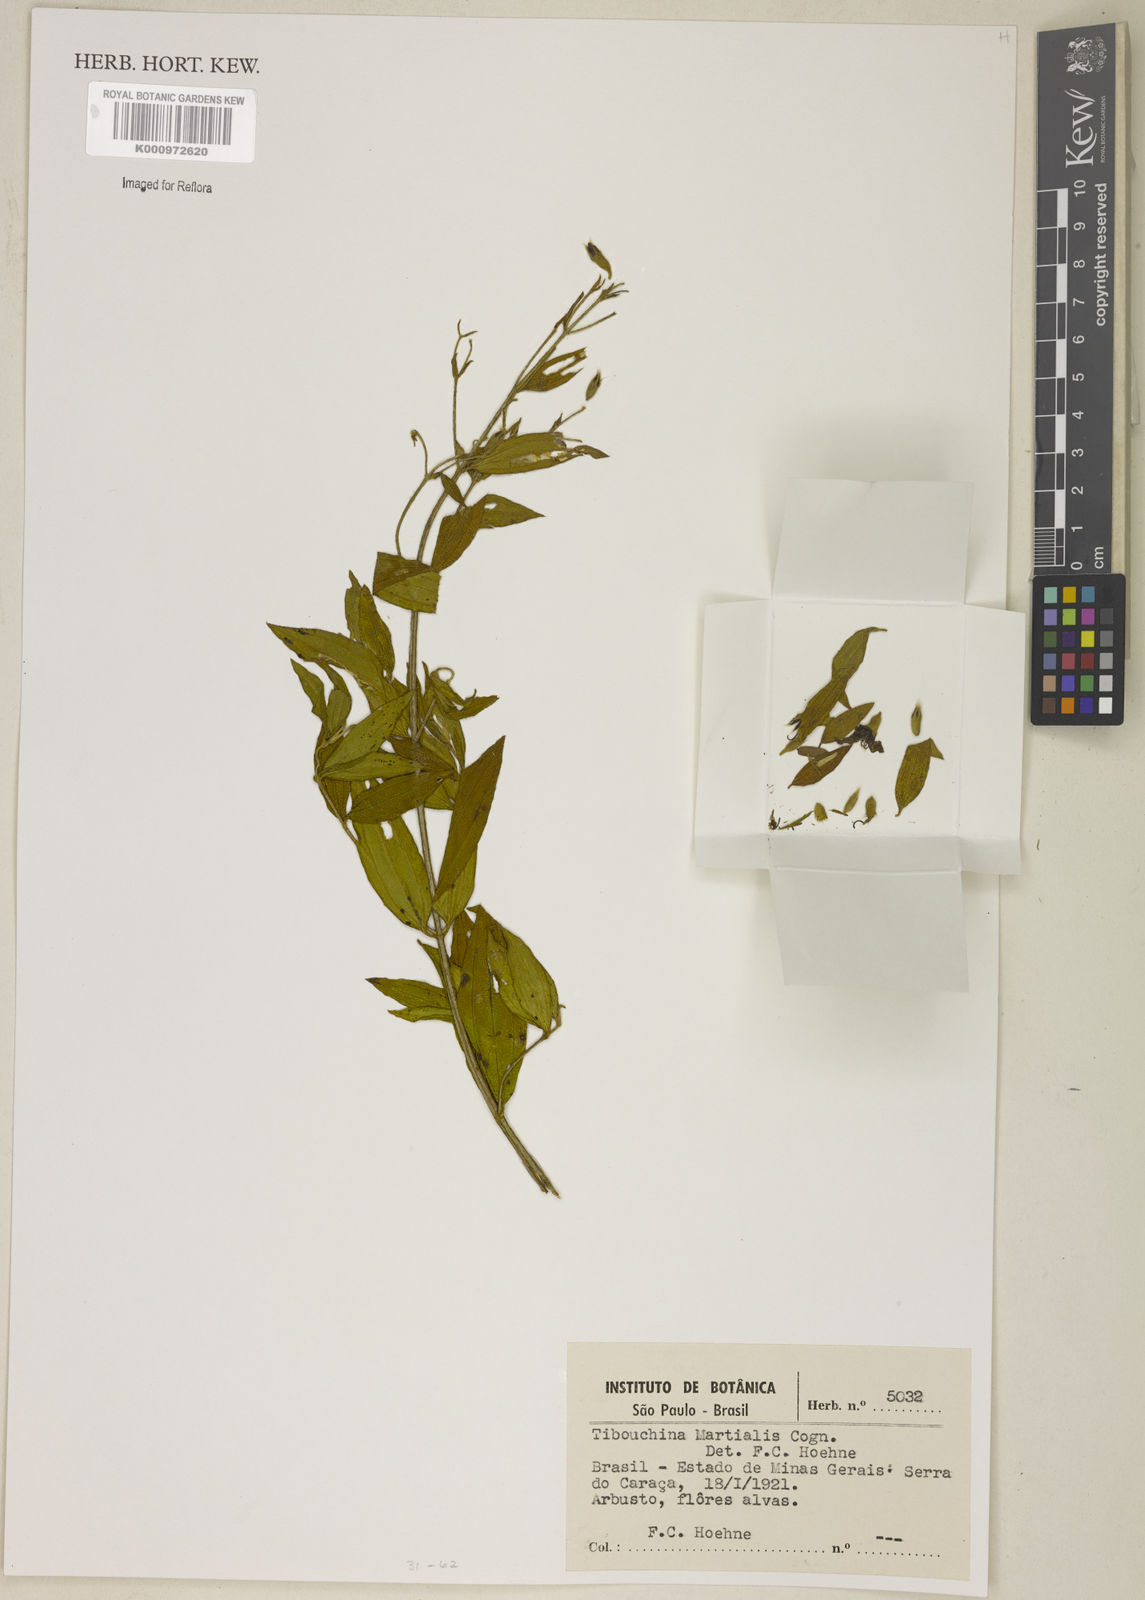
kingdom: Plantae
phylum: Tracheophyta
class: Magnoliopsida
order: Myrtales
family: Melastomataceae
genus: Pleroma
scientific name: Pleroma martiale
